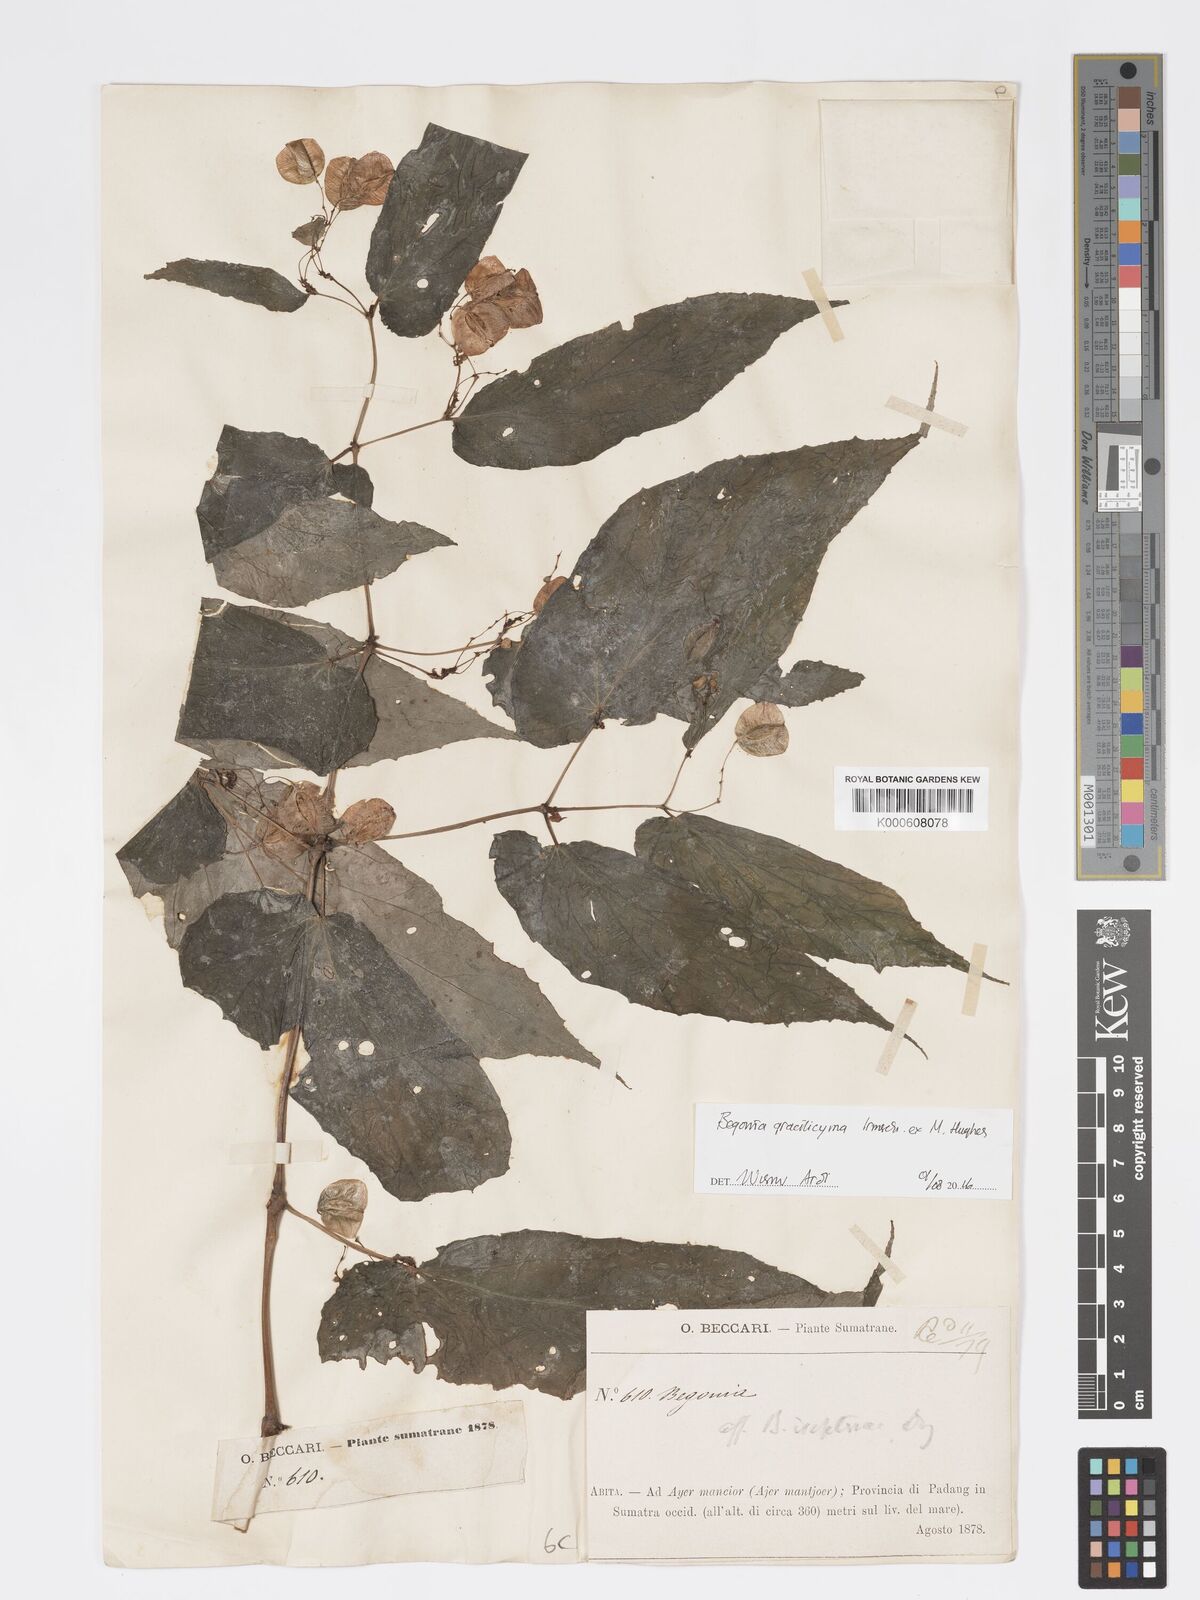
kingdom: Plantae
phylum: Tracheophyta
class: Magnoliopsida
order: Cucurbitales
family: Begoniaceae
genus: Begonia
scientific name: Begonia gracilicyma
